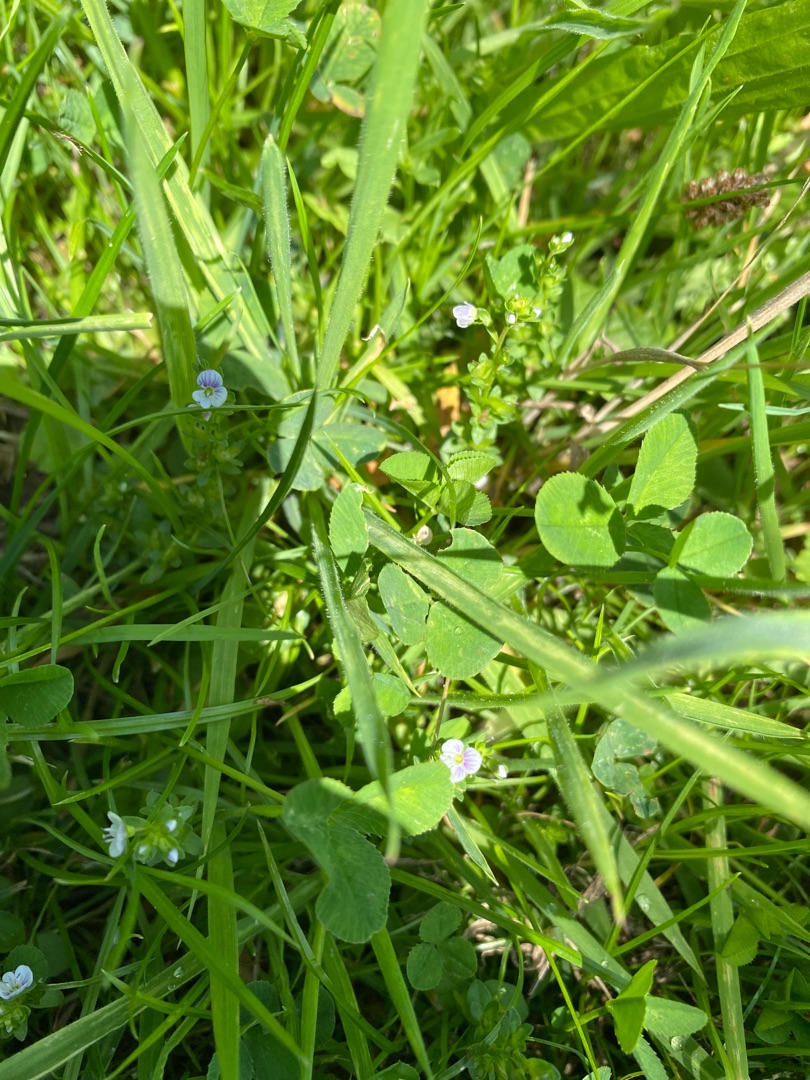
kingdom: Plantae
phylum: Tracheophyta
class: Magnoliopsida
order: Lamiales
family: Plantaginaceae
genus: Veronica
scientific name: Veronica serpyllifolia
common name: Glat ærenpris
